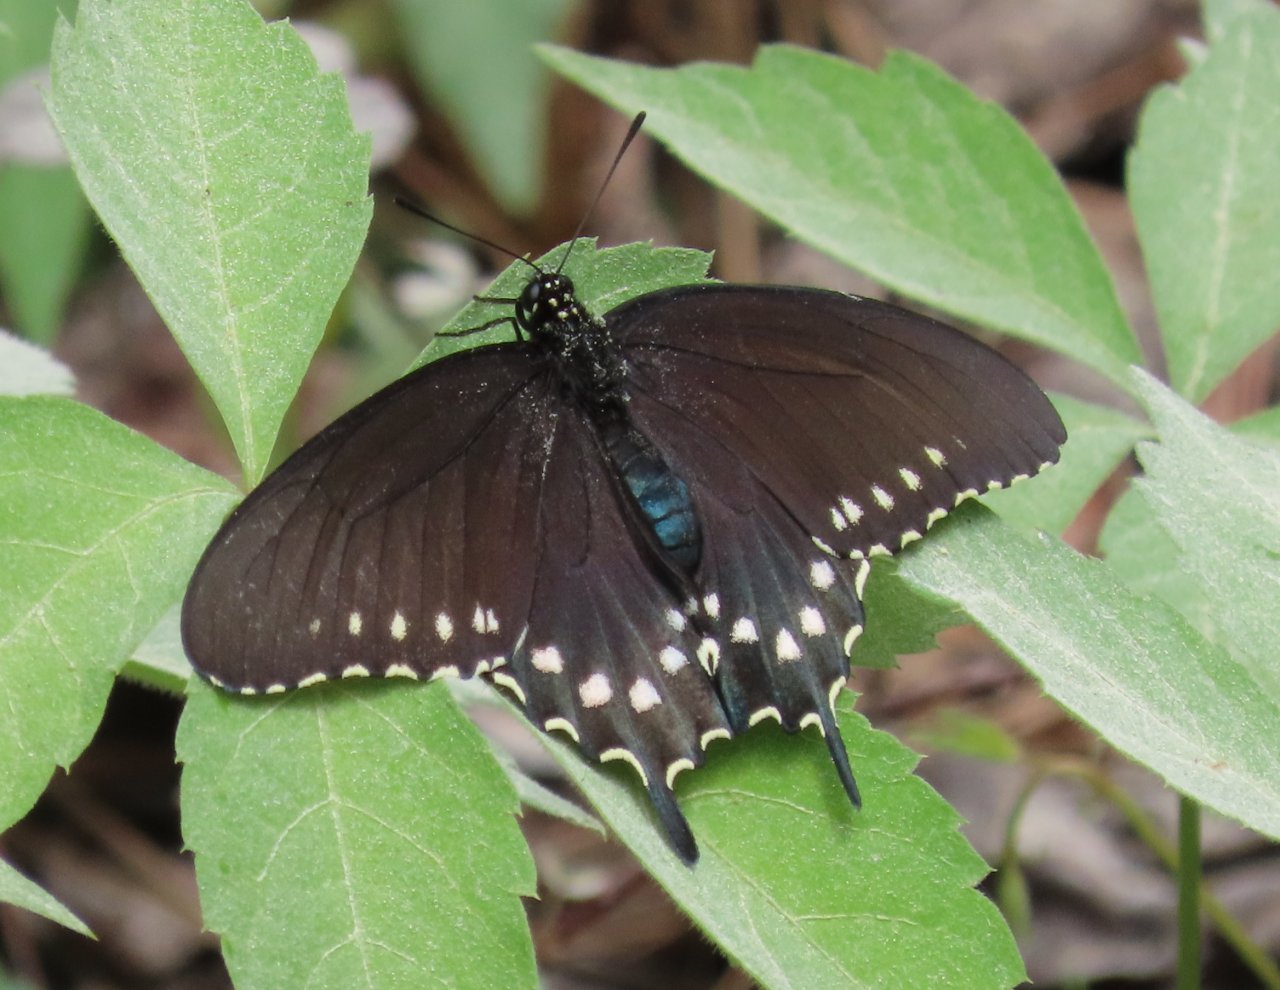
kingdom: Animalia
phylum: Arthropoda
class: Insecta
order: Lepidoptera
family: Papilionidae
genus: Battus
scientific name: Battus philenor
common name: Pipevine Swallowtail
